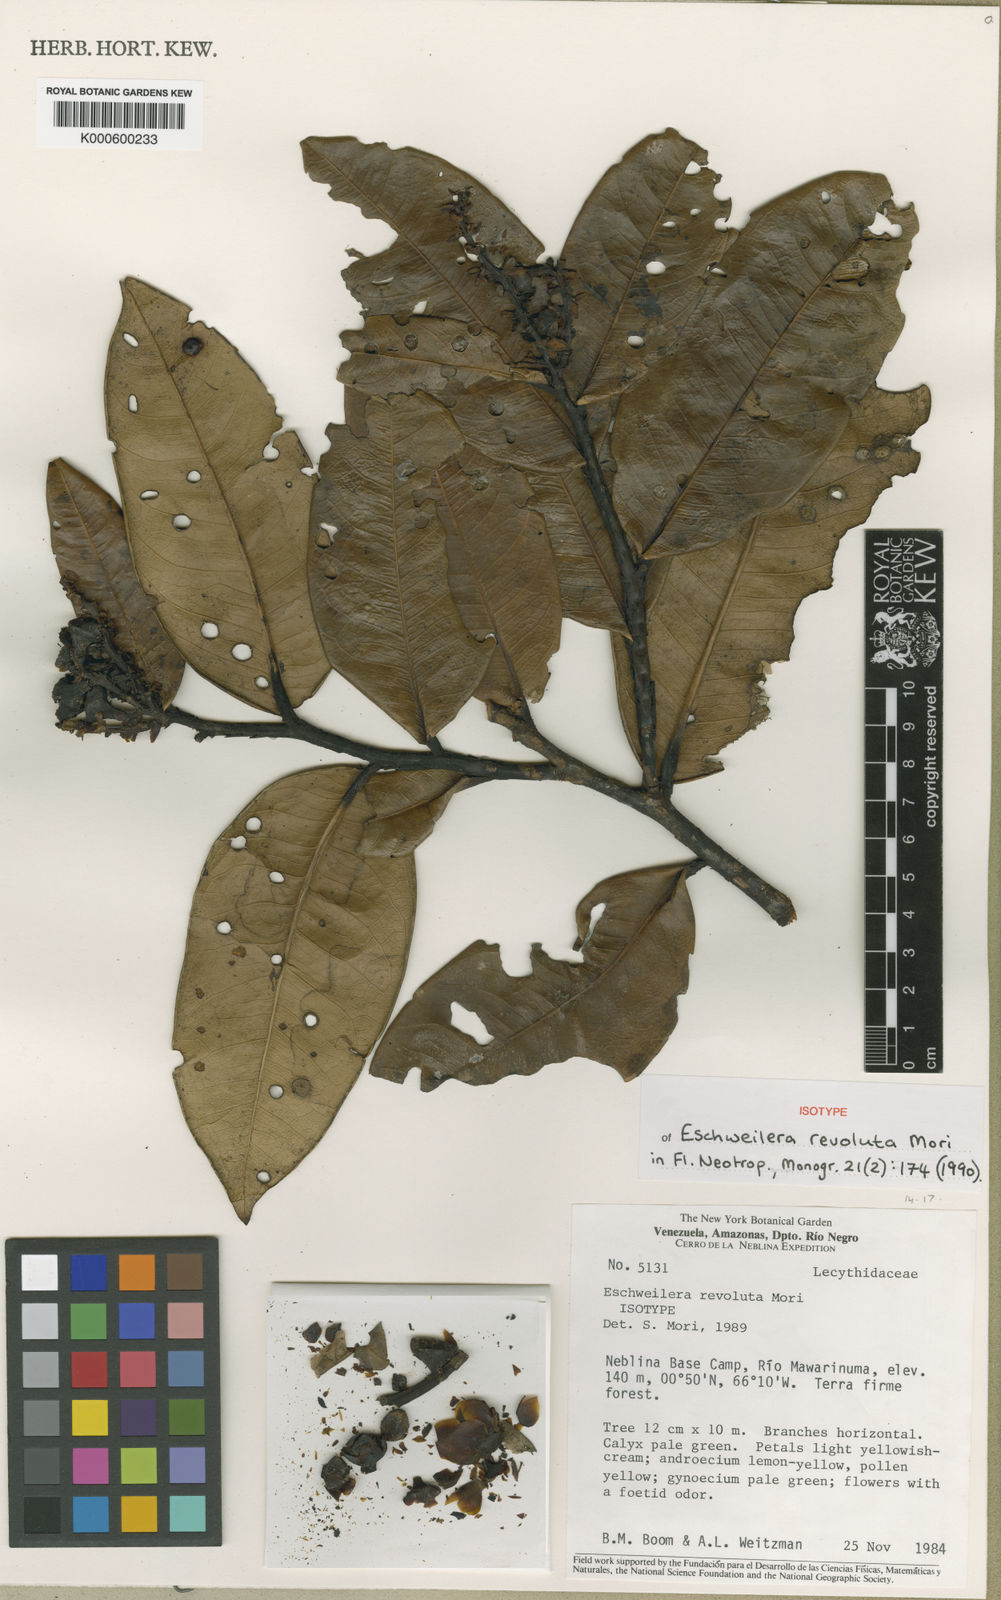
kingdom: Plantae
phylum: Tracheophyta
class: Magnoliopsida
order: Ericales
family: Lecythidaceae
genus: Eschweilera
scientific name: Eschweilera revoluta
